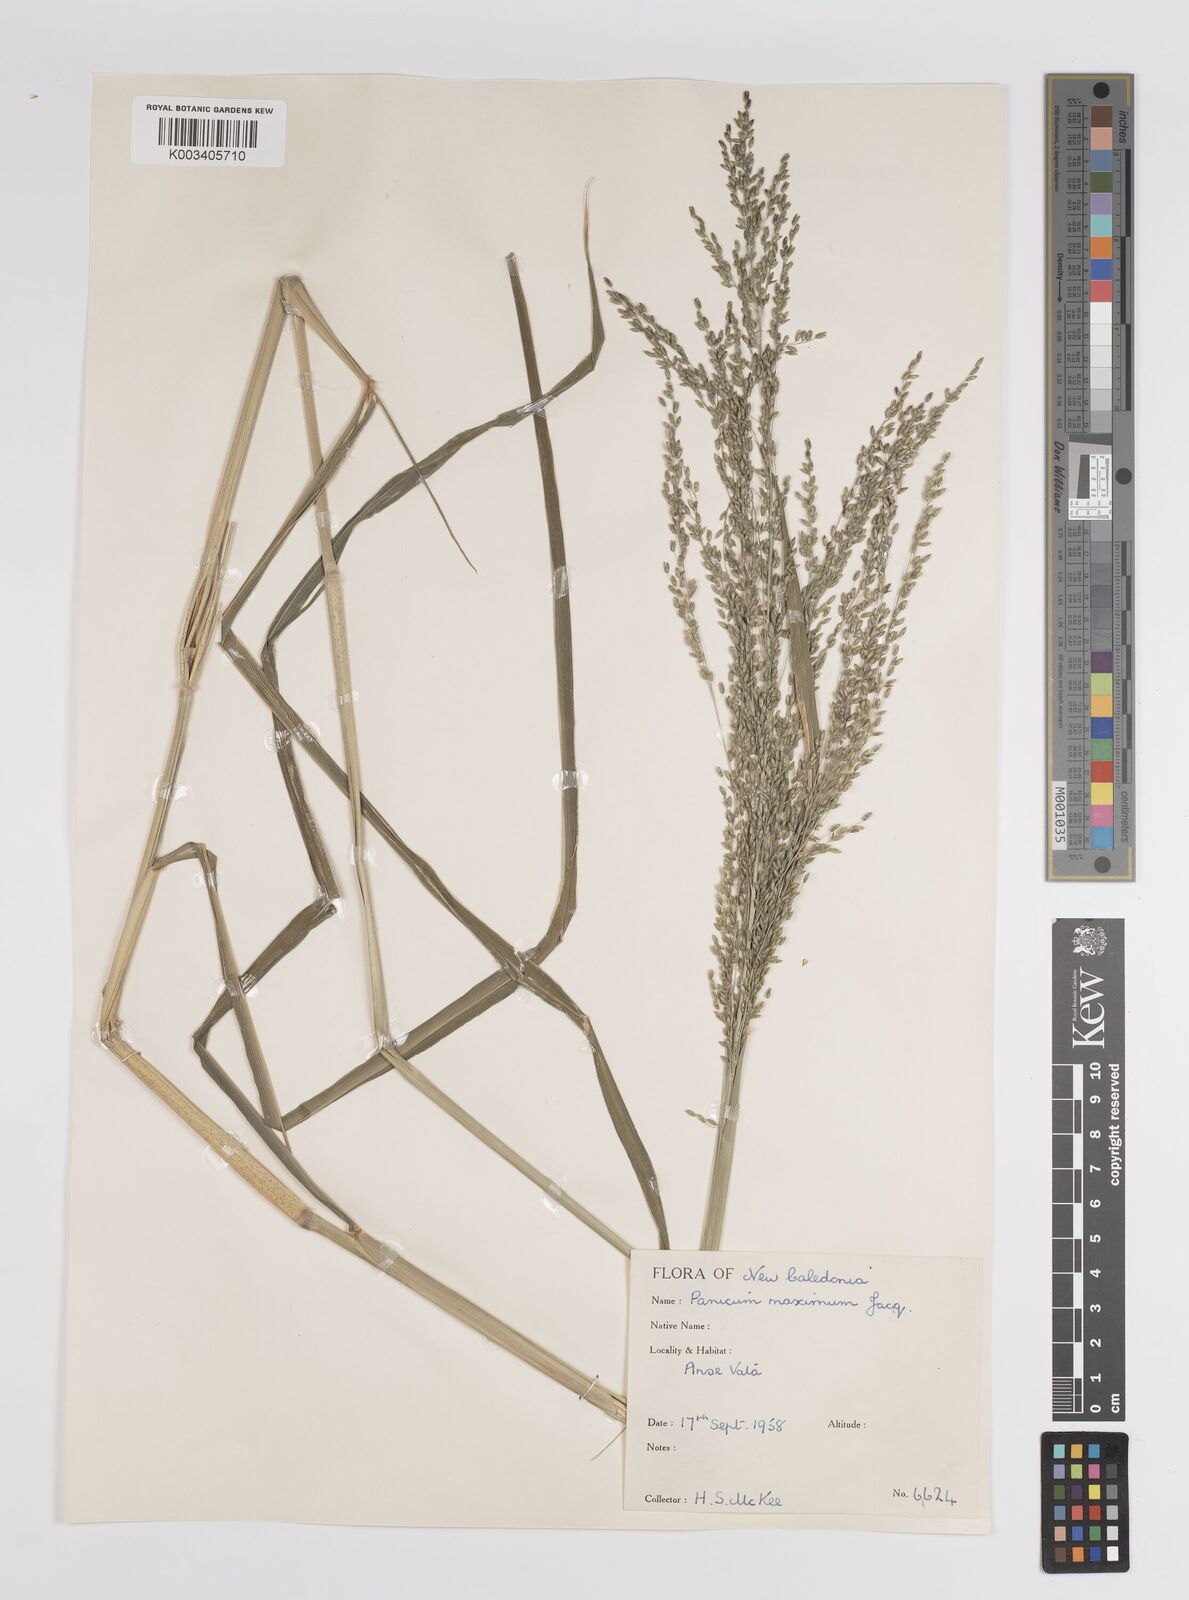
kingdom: Plantae
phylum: Tracheophyta
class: Liliopsida
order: Poales
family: Poaceae
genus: Megathyrsus
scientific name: Megathyrsus maximus
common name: Guineagrass
